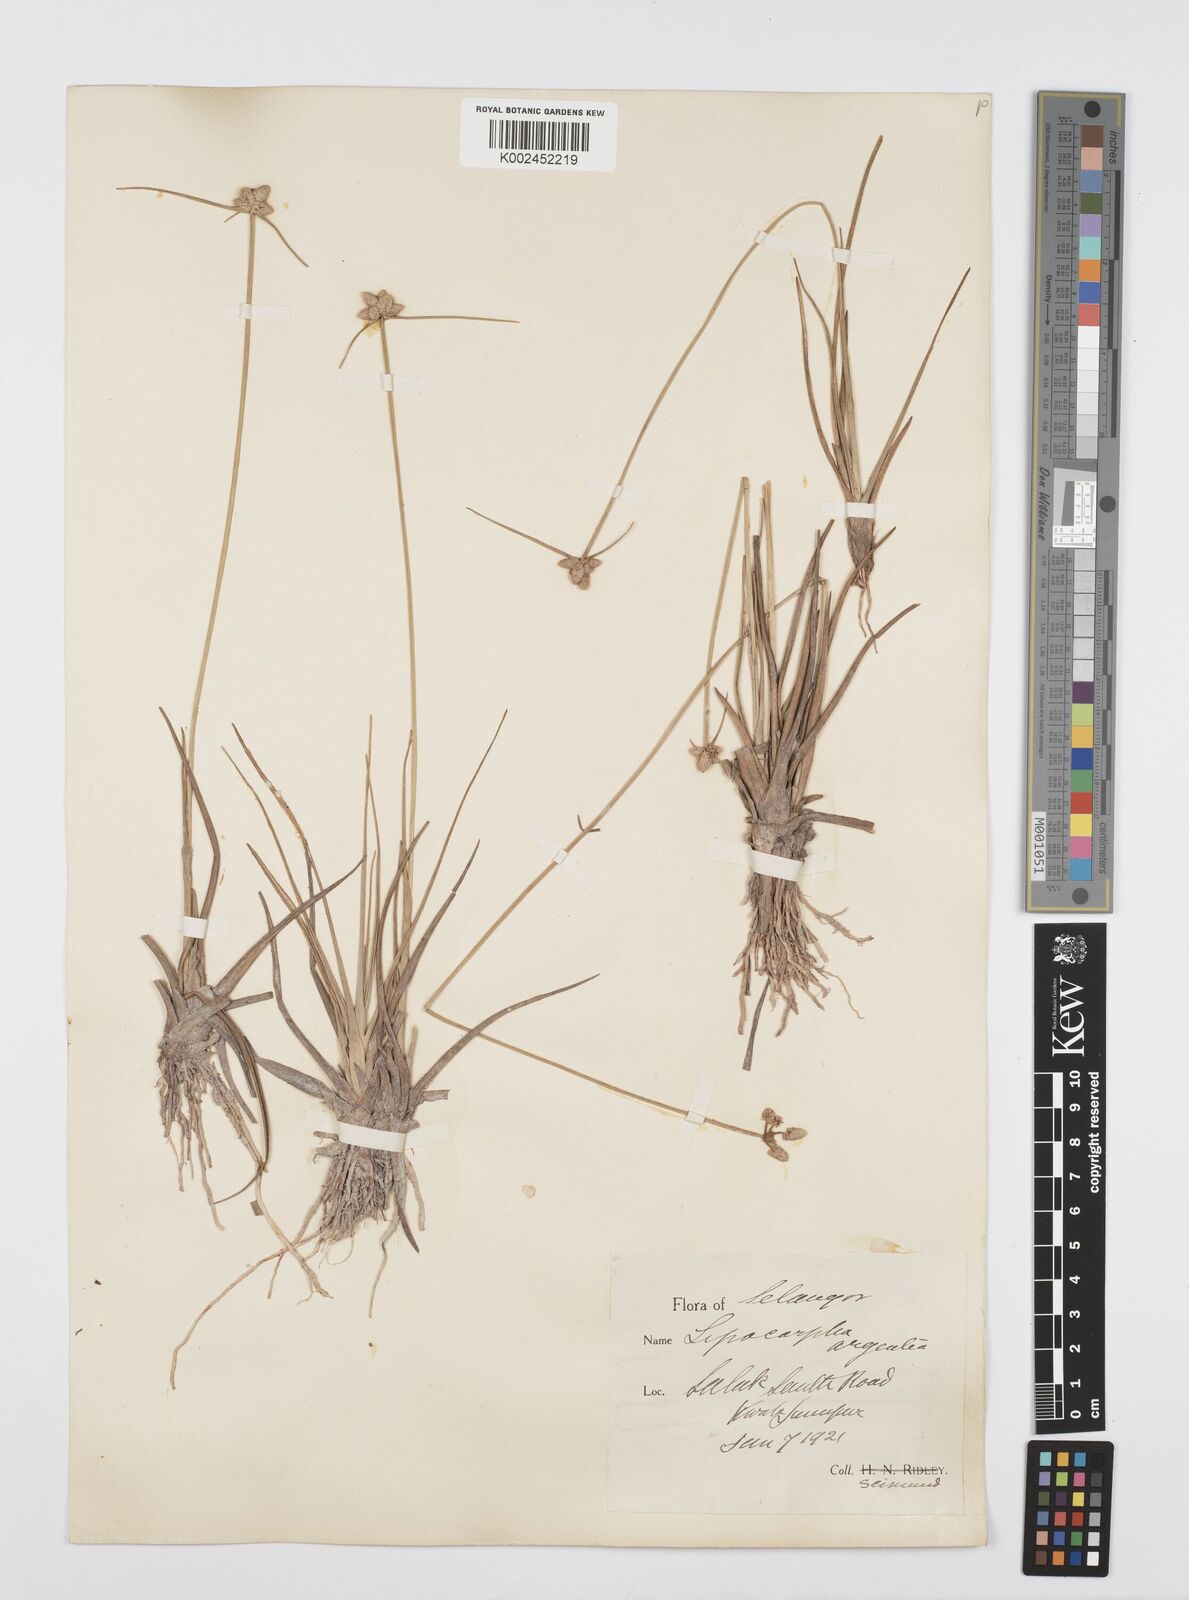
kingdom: Plantae
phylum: Tracheophyta
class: Liliopsida
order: Poales
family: Cyperaceae
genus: Cyperus
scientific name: Cyperus
